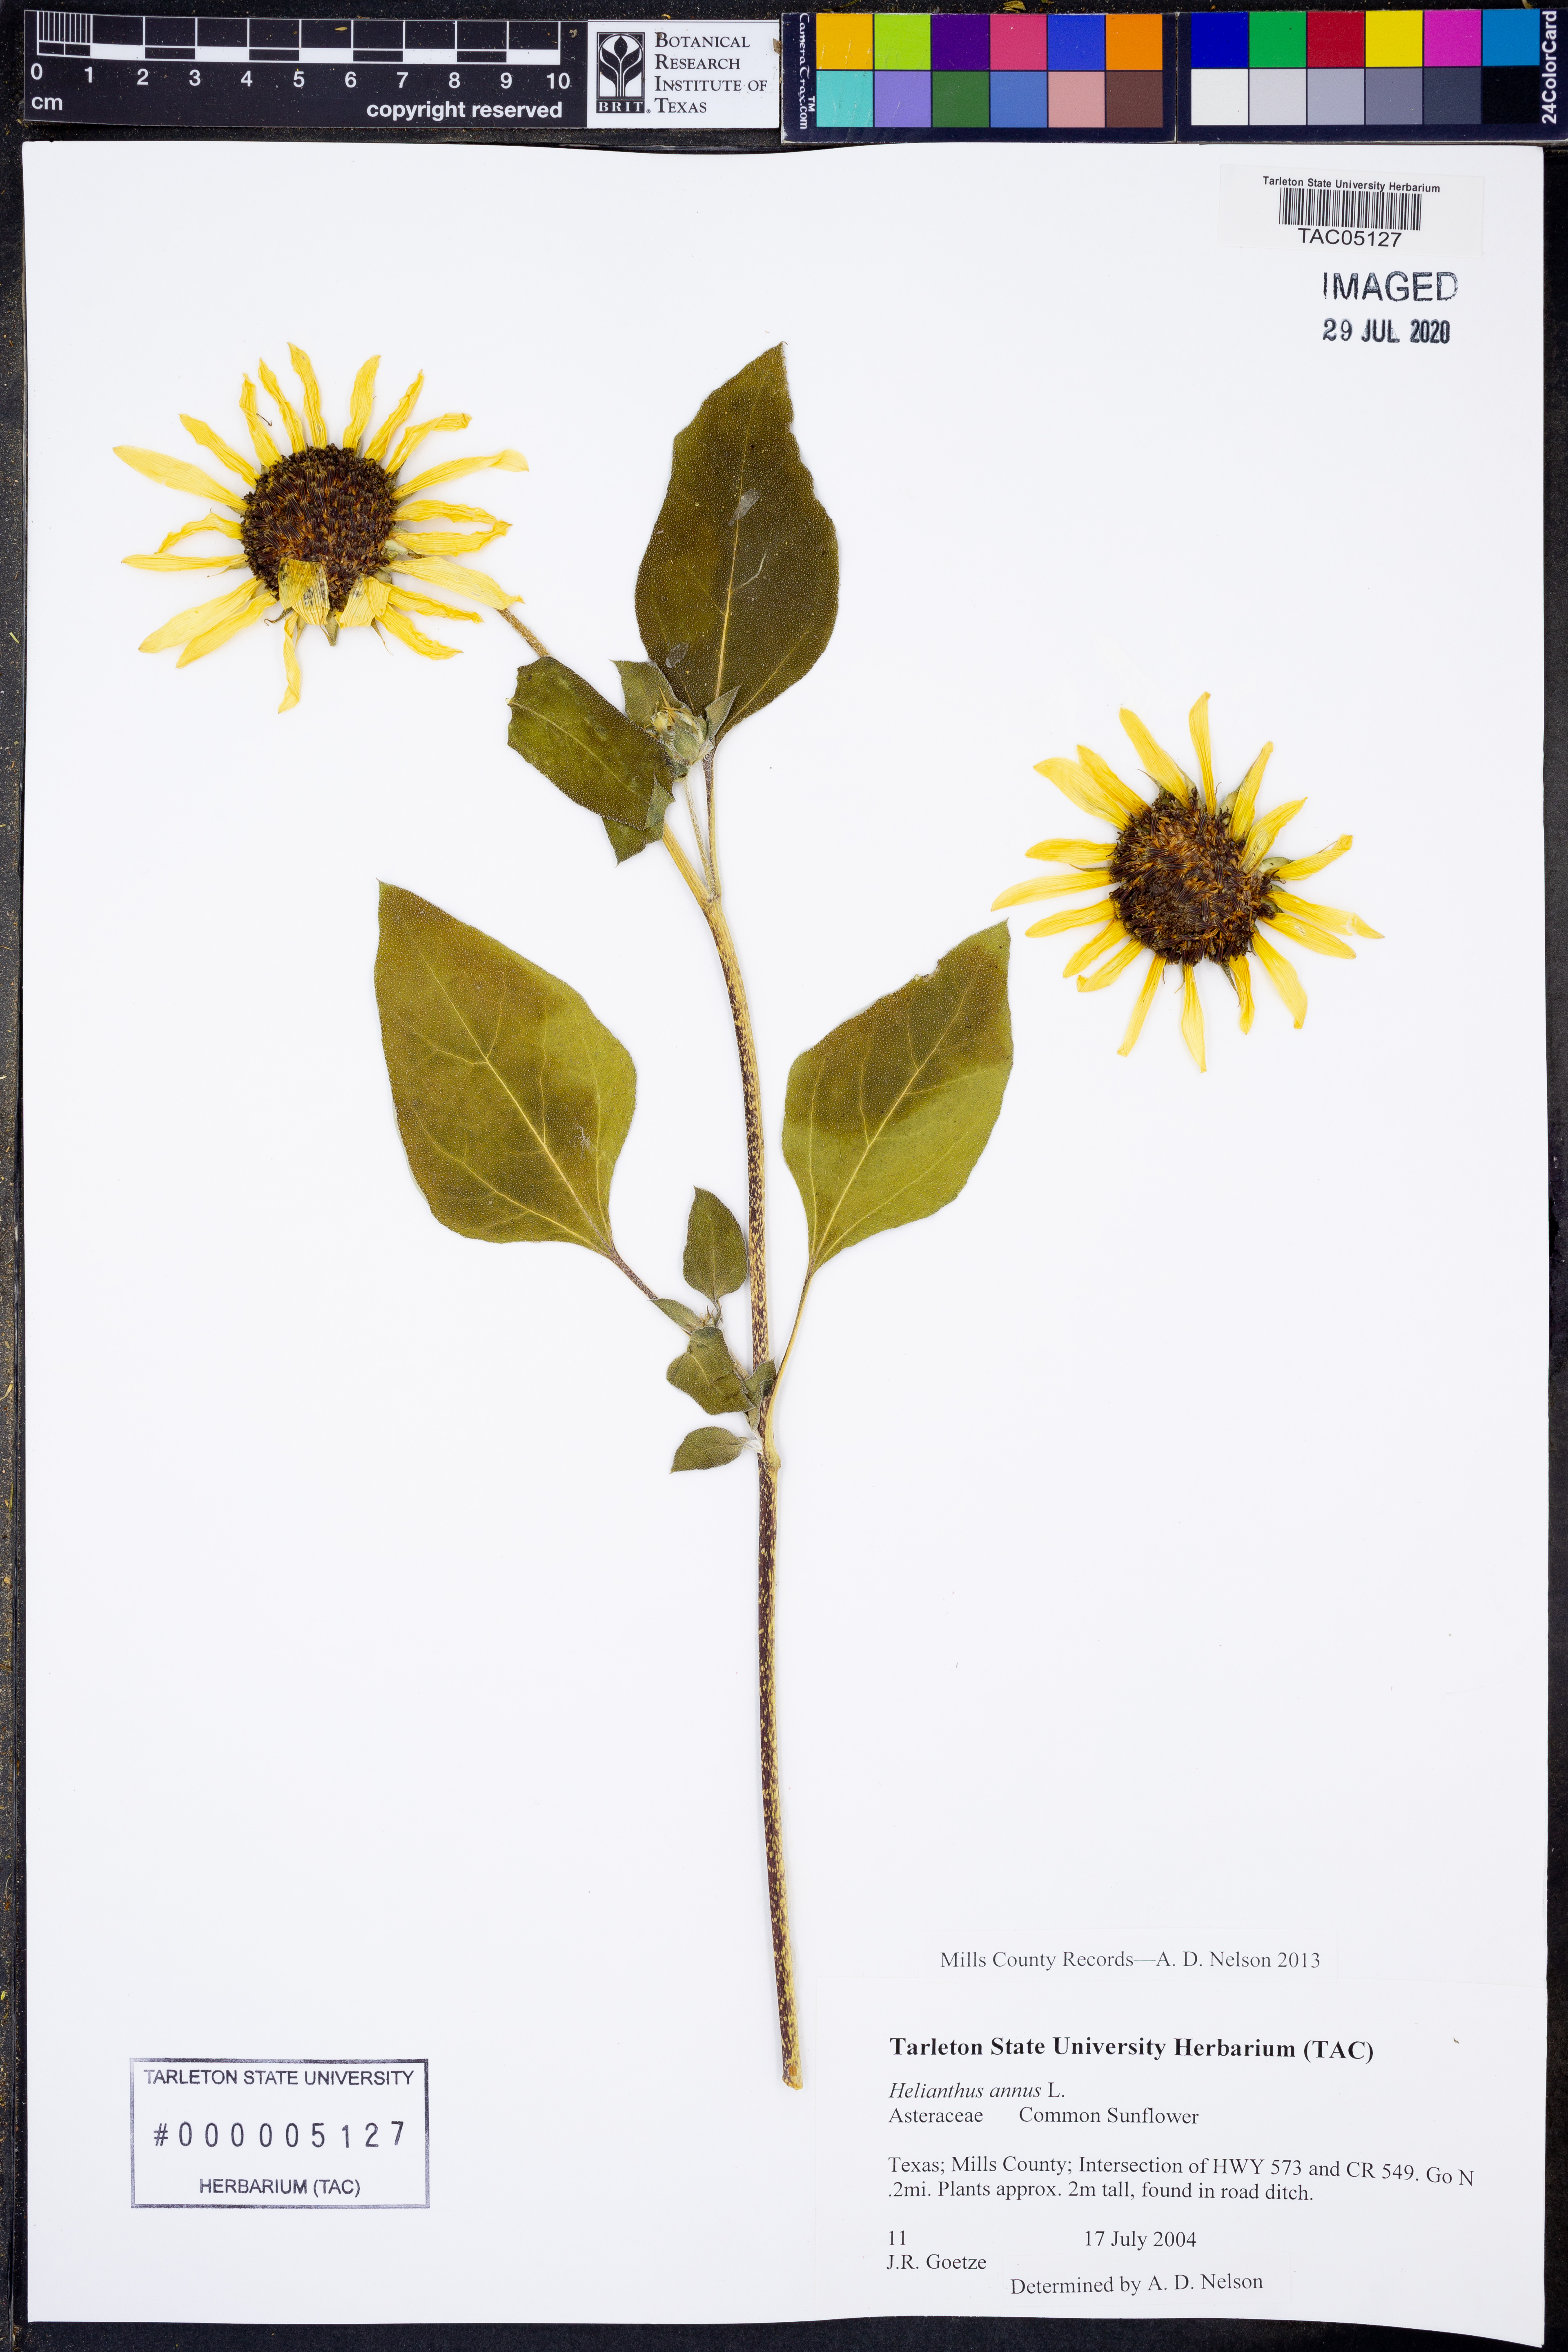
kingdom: Plantae
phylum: Tracheophyta
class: Magnoliopsida
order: Asterales
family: Asteraceae
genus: Helianthus
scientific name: Helianthus annuus
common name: Sunflower
